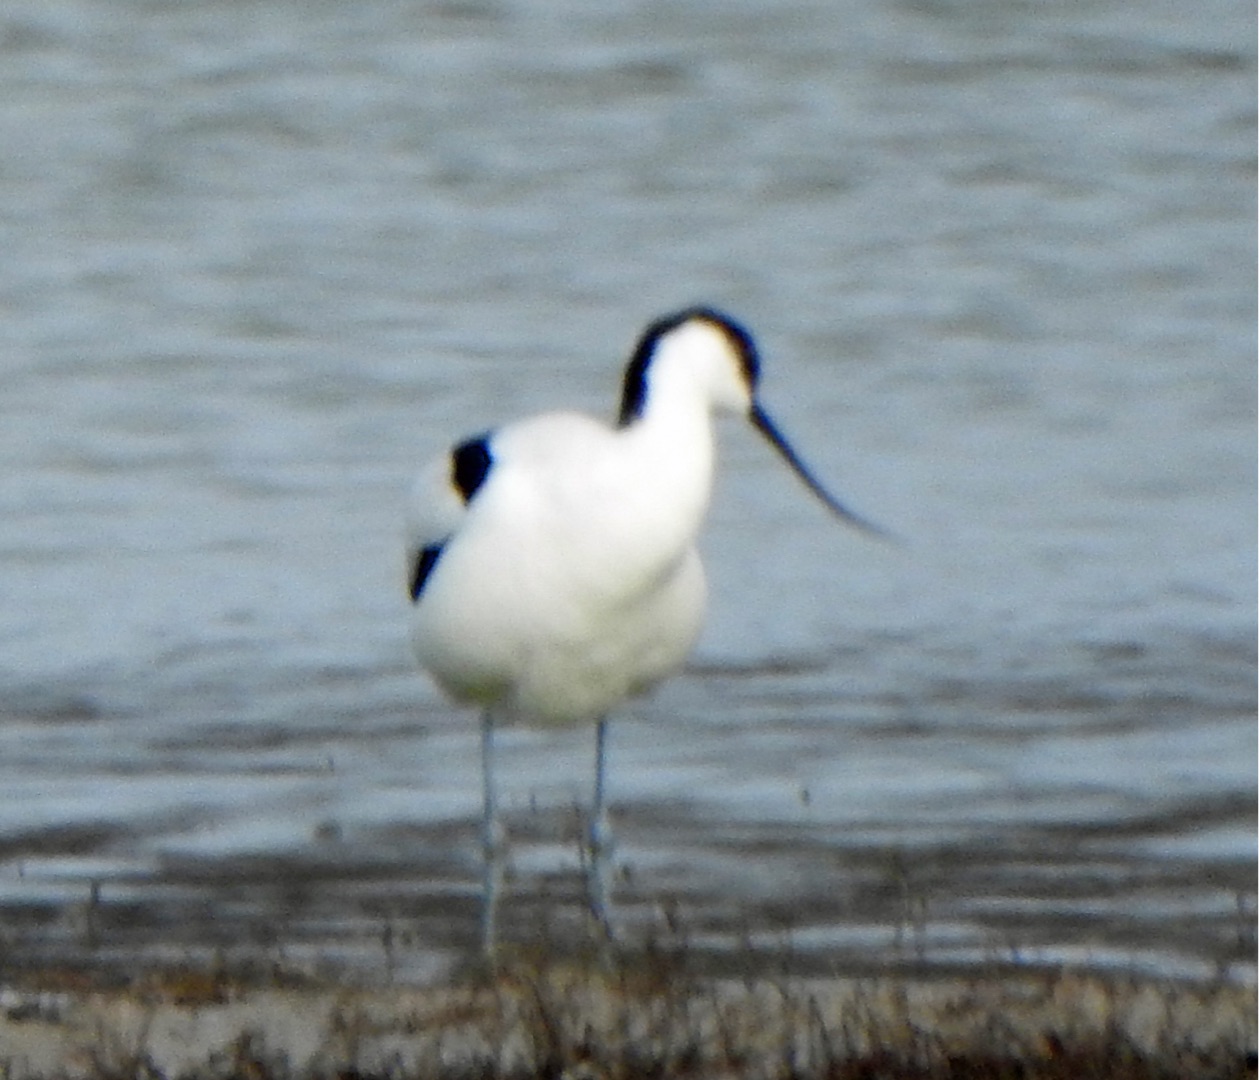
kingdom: Animalia
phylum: Chordata
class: Aves
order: Charadriiformes
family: Recurvirostridae
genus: Recurvirostra
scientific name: Recurvirostra avosetta
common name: Klyde
